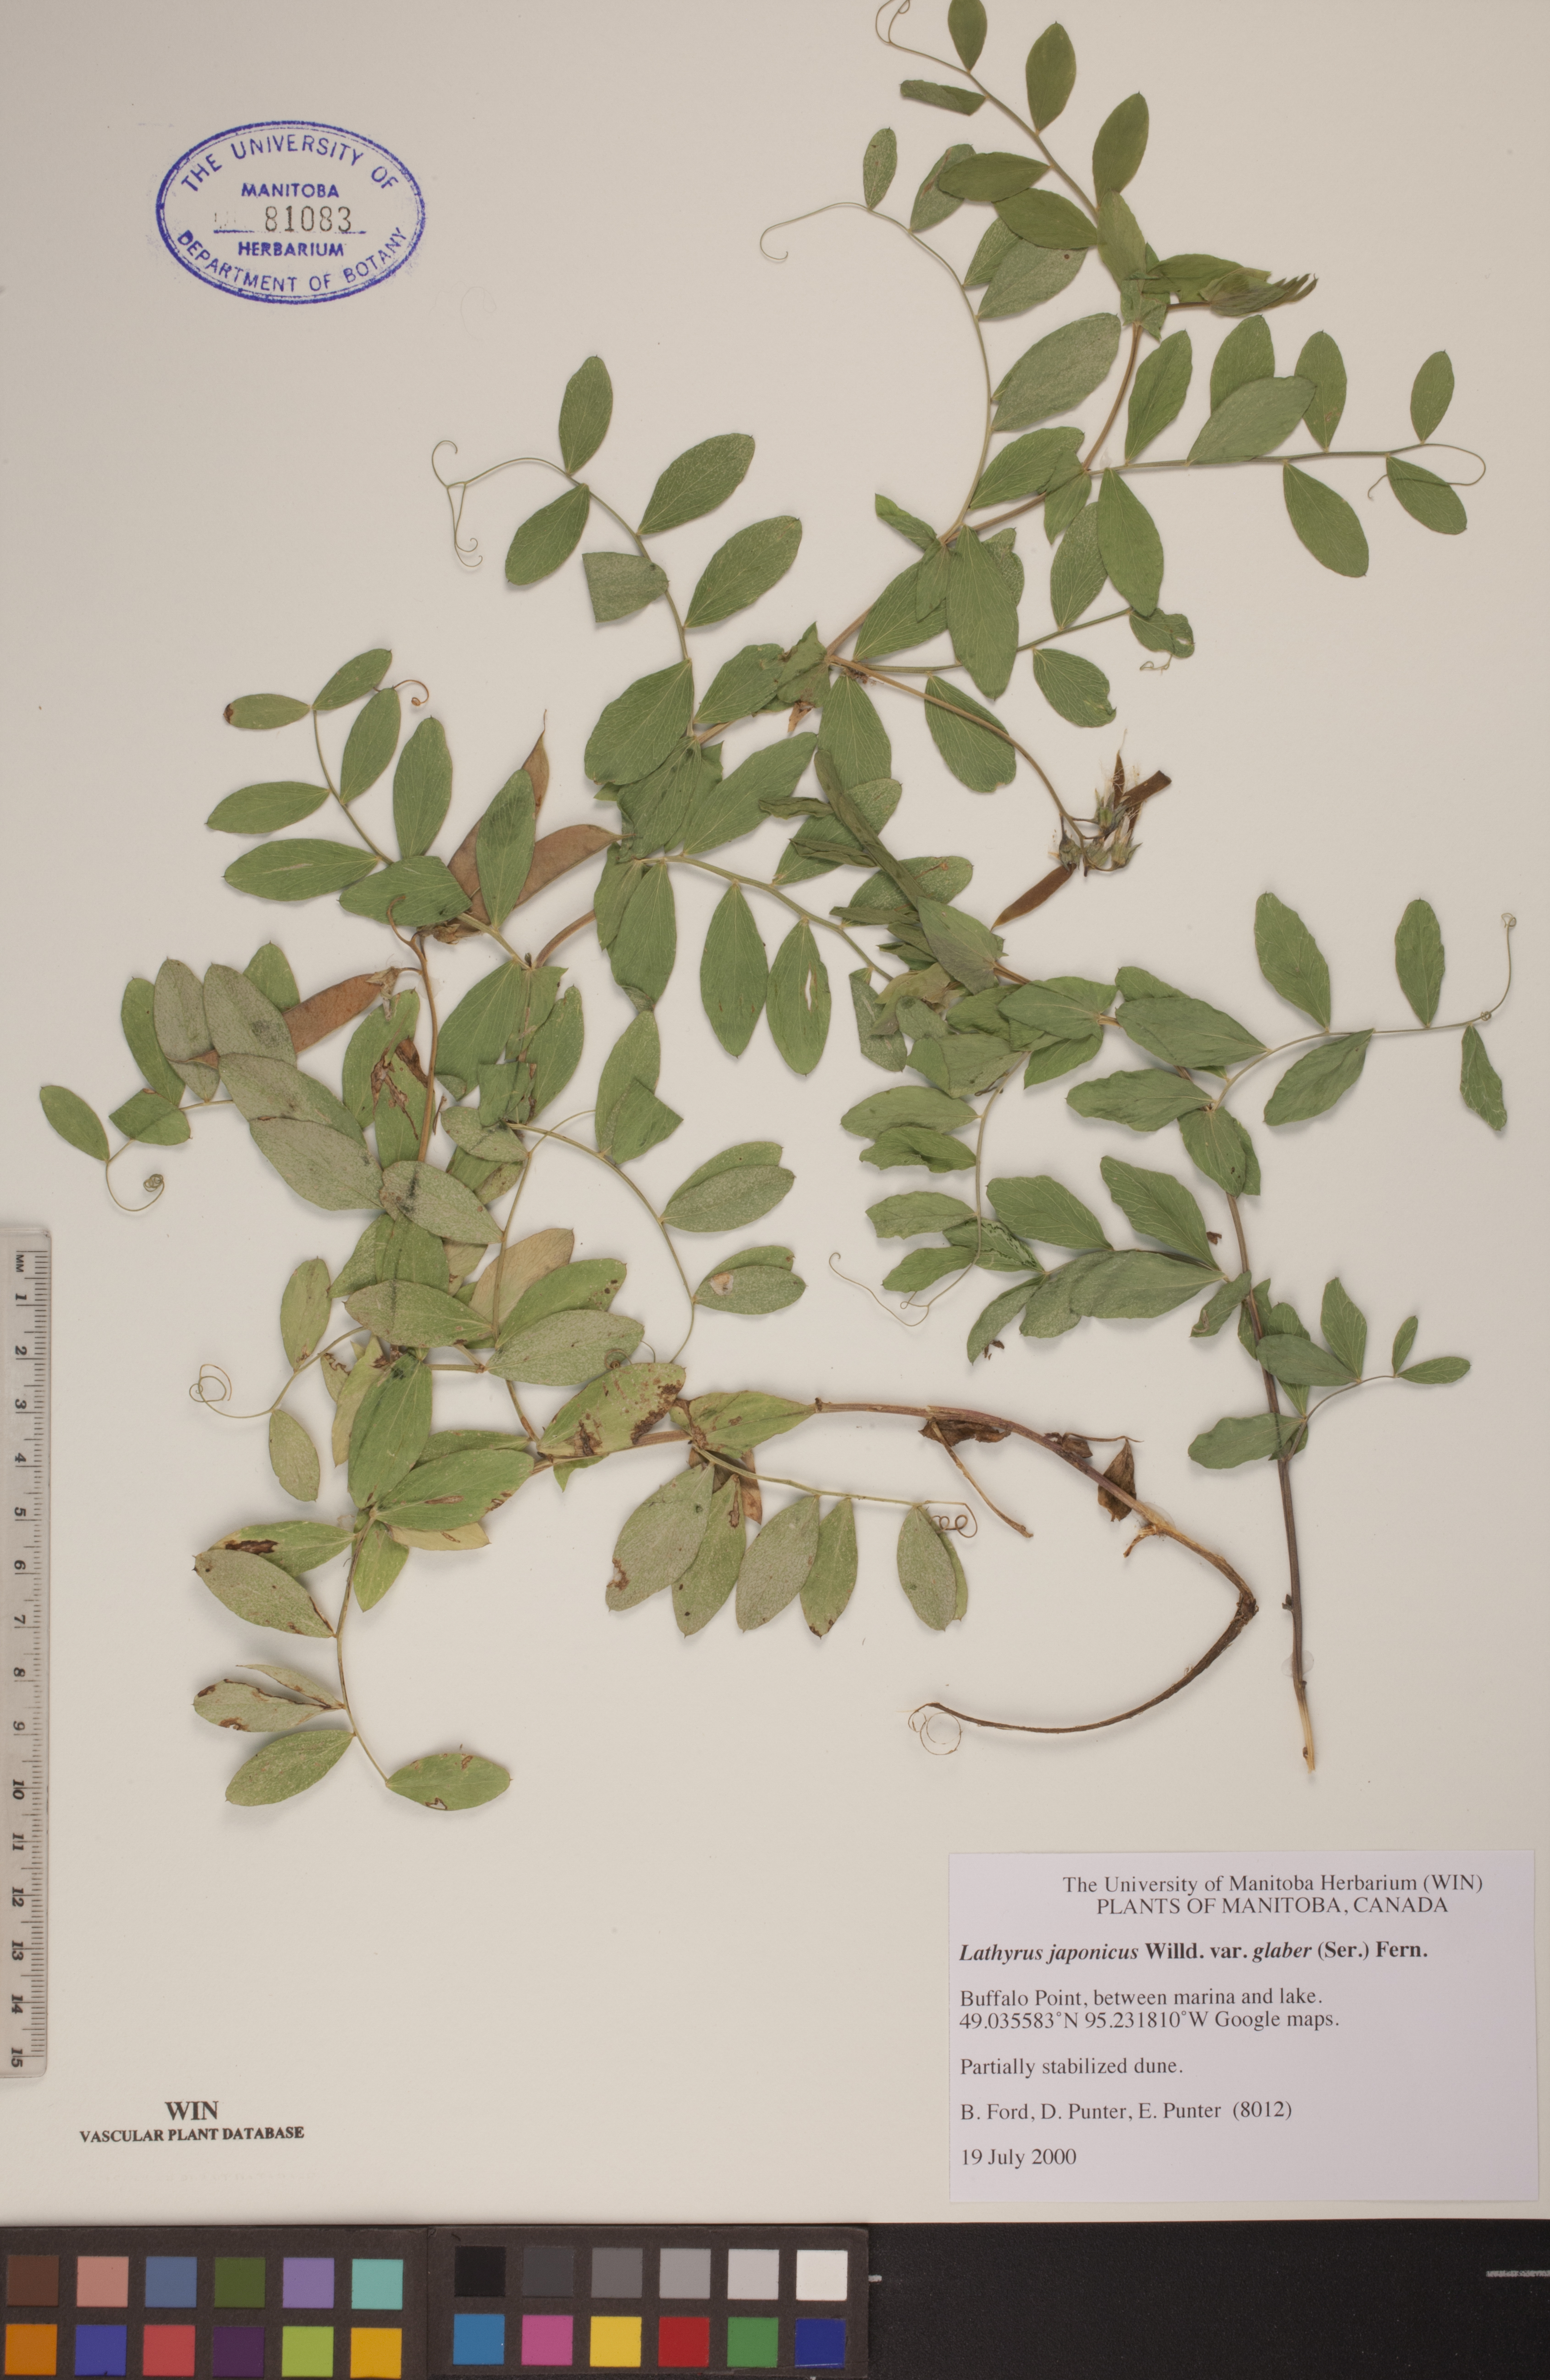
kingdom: Plantae
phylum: Tracheophyta
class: Magnoliopsida
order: Fabales
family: Fabaceae
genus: Lathyrus
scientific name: Lathyrus japonicus
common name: Sea pea
